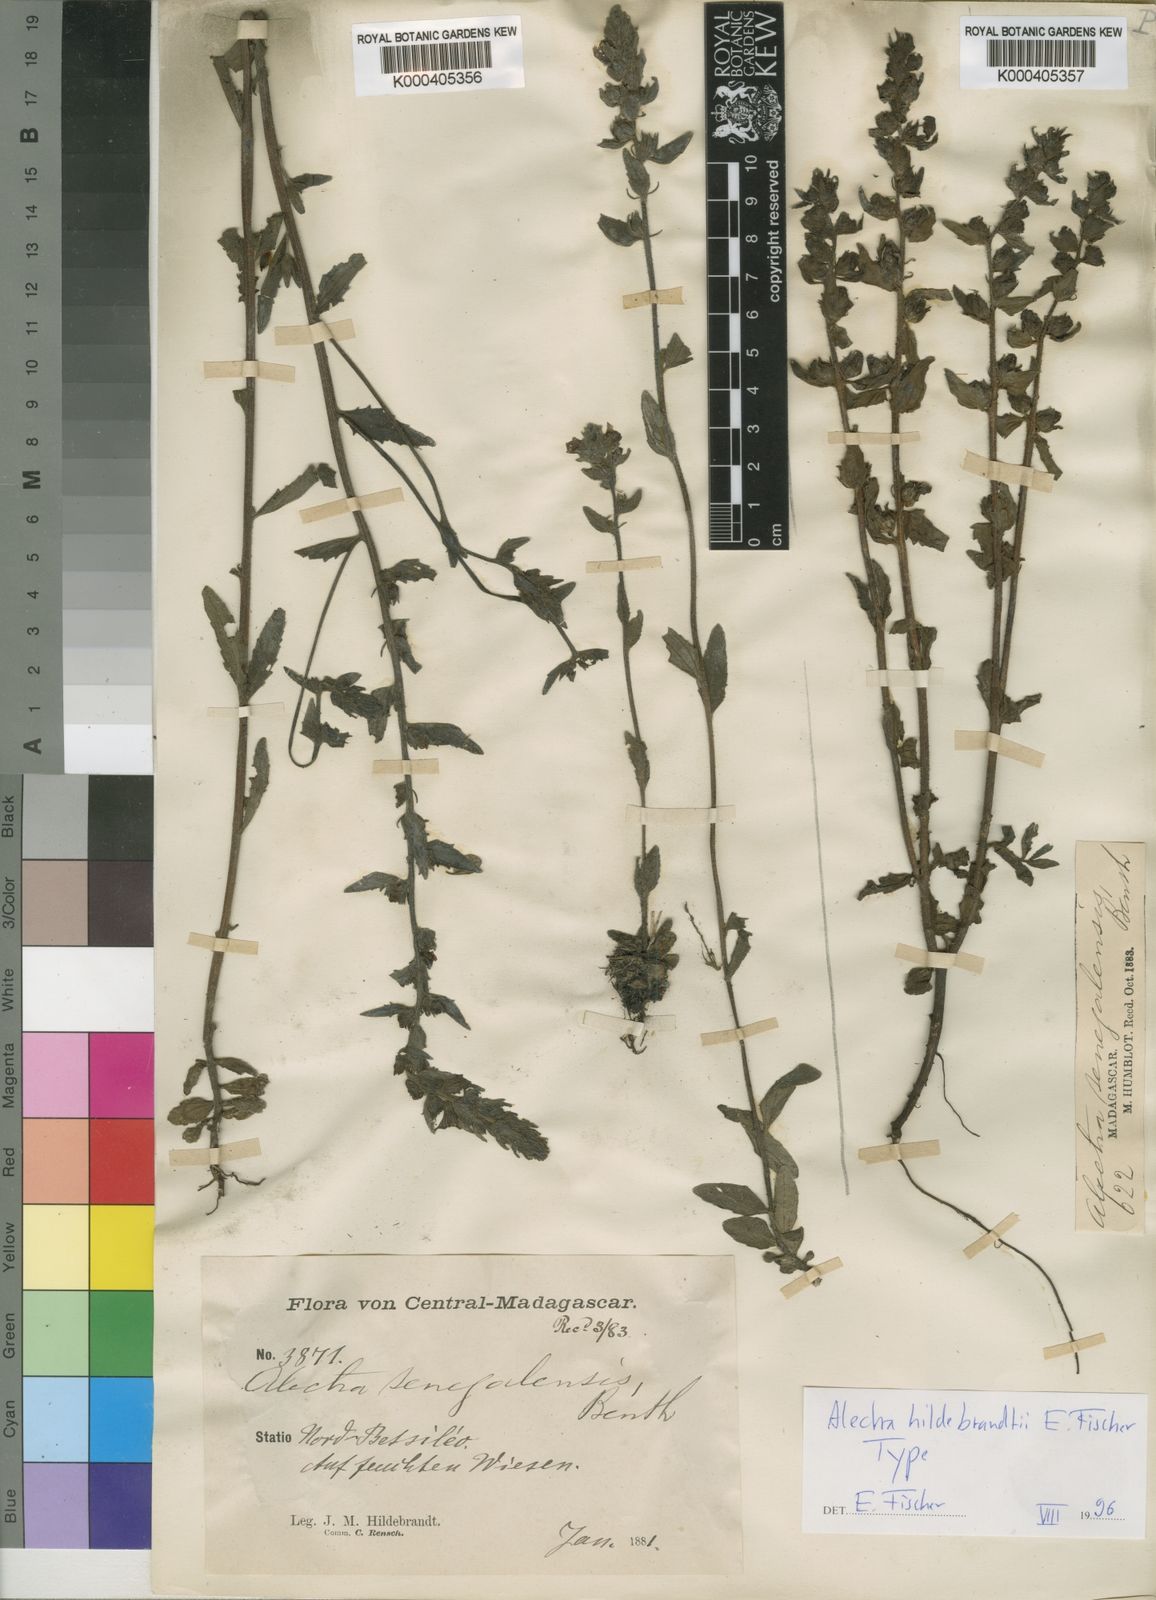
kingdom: Plantae
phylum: Tracheophyta
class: Magnoliopsida
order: Lamiales
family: Orobanchaceae
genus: Alectra
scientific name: Alectra hildebrandtii
